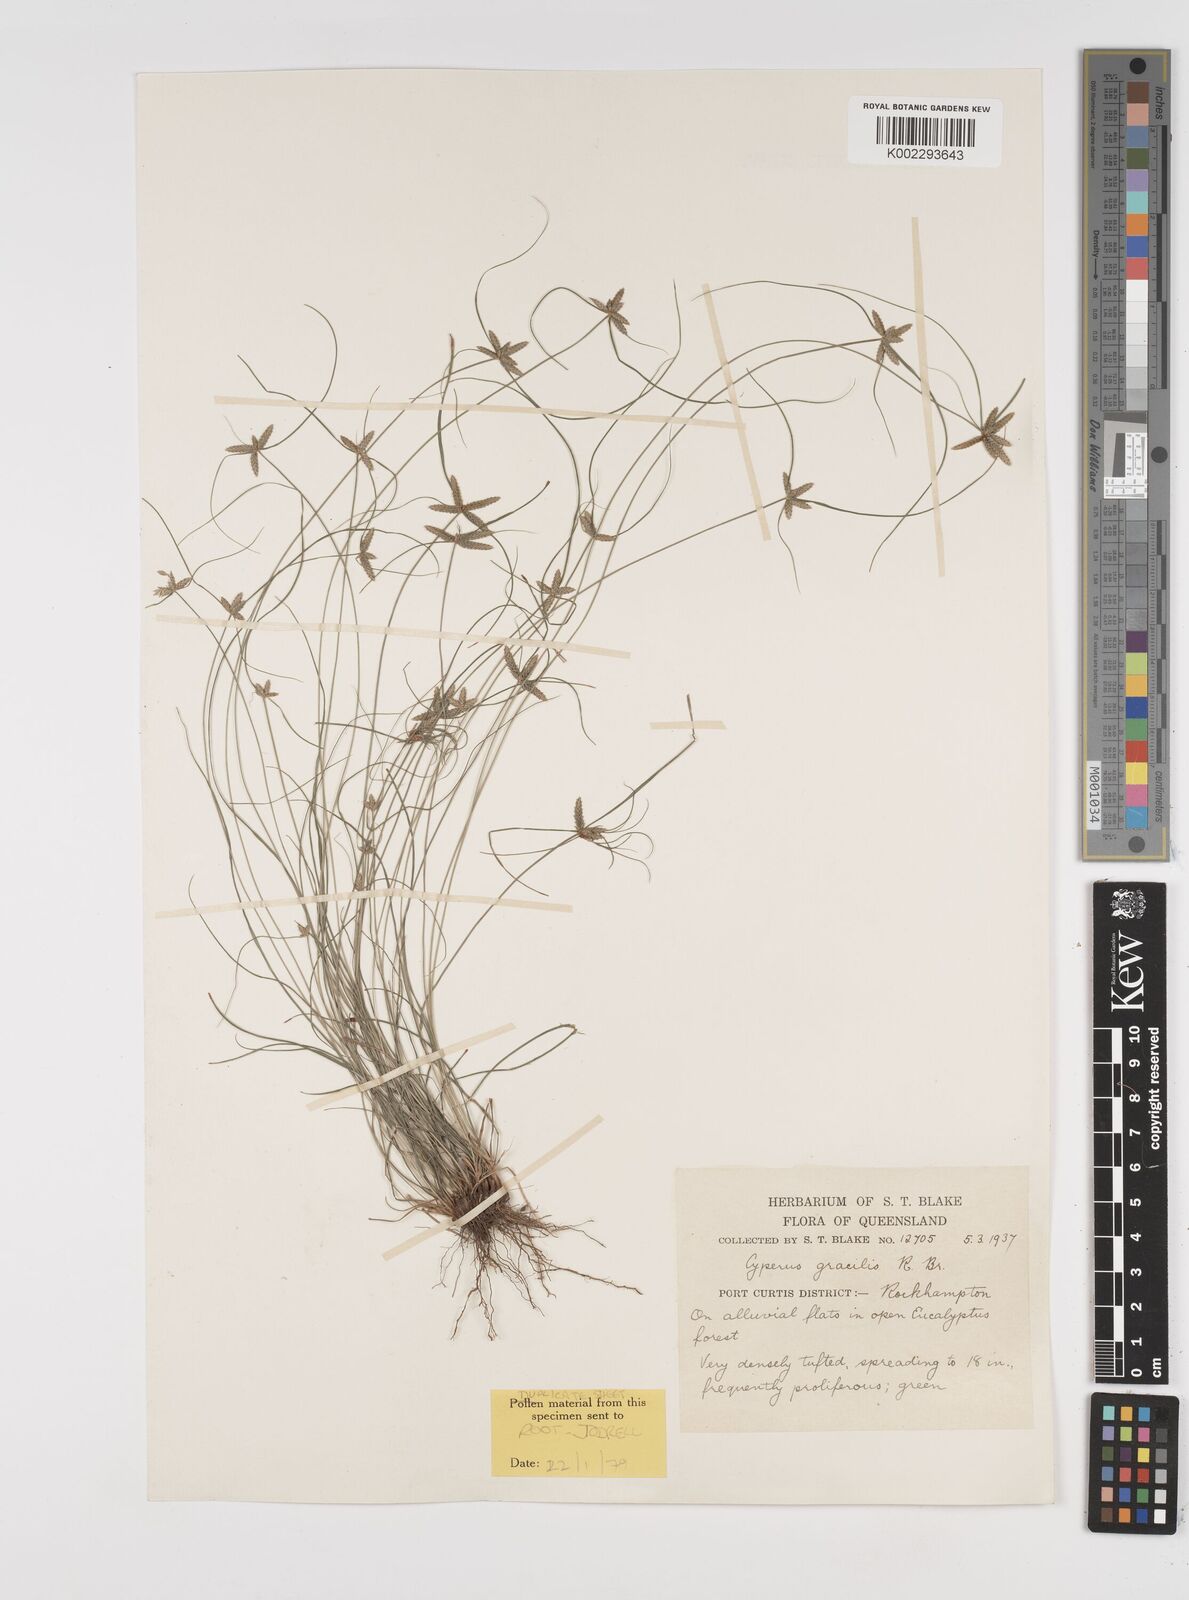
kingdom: Plantae
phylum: Tracheophyta
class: Liliopsida
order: Poales
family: Cyperaceae
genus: Cyperus
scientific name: Cyperus gracilis
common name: Slimjim flatsedge
